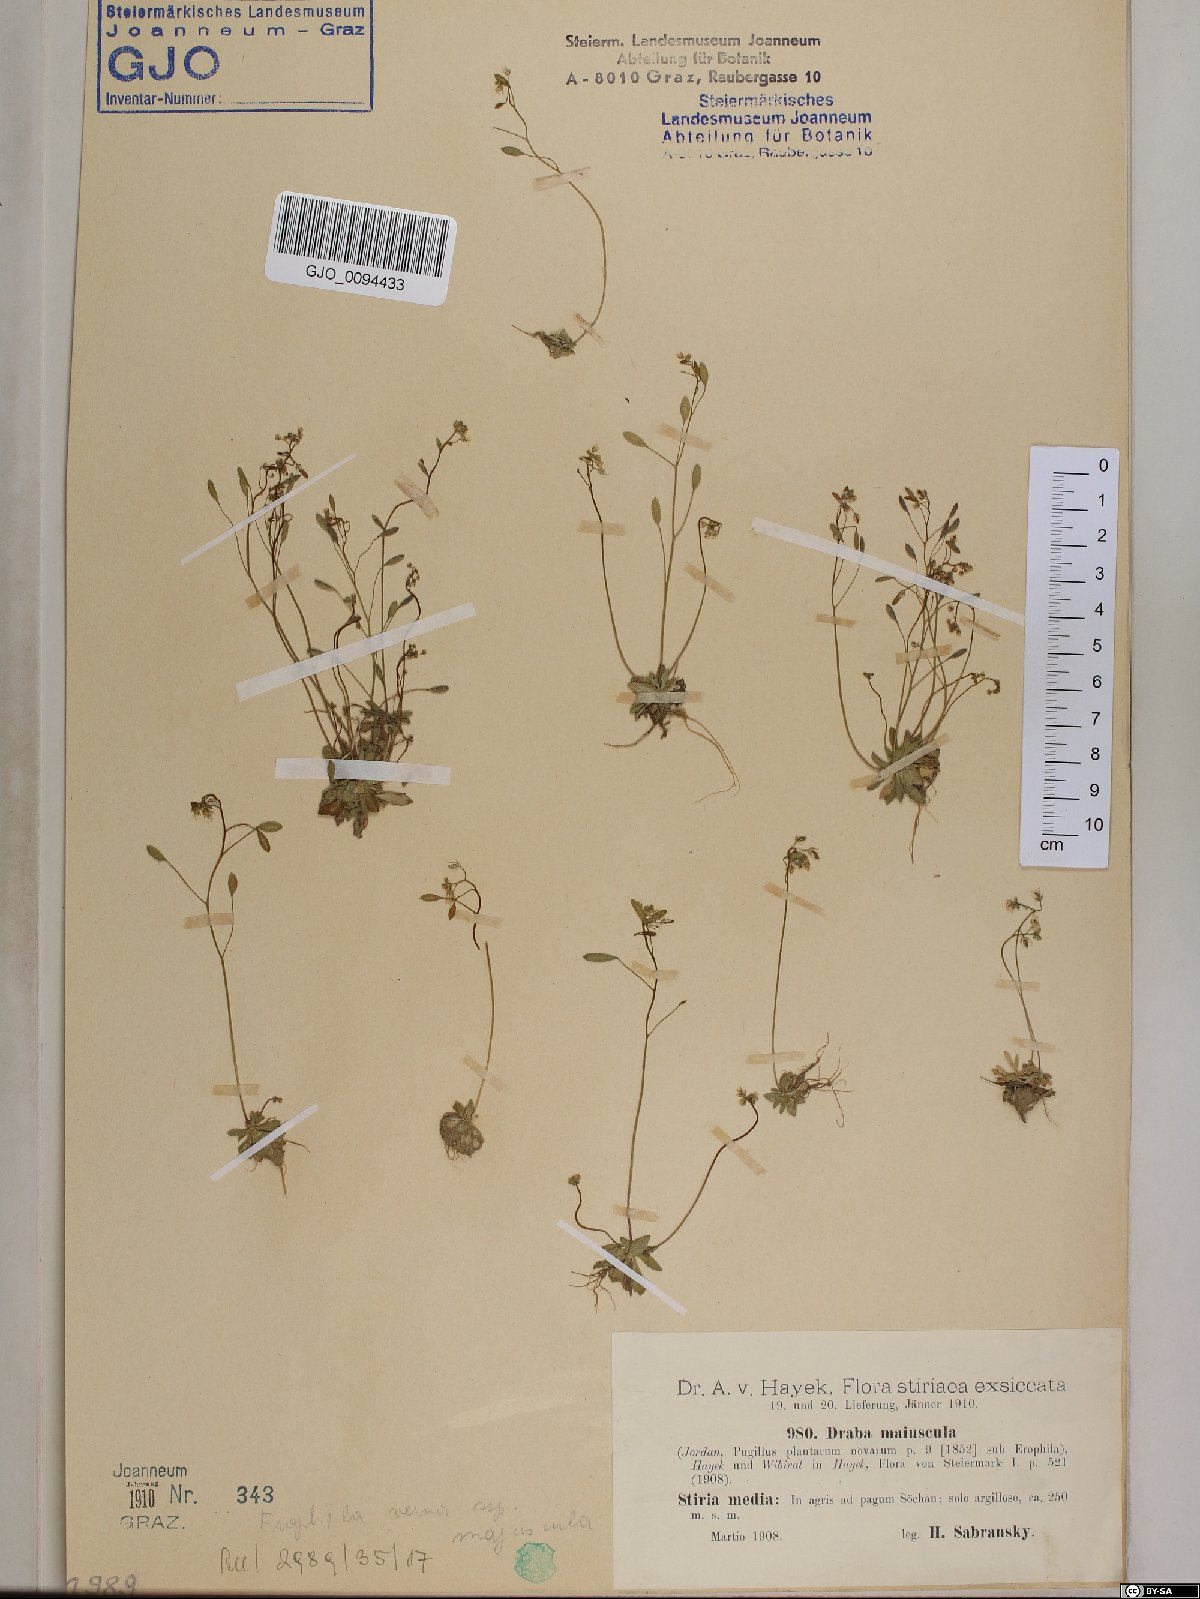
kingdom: Plantae
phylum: Tracheophyta
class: Magnoliopsida
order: Brassicales
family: Brassicaceae
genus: Draba
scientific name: Draba verna
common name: Spring draba
